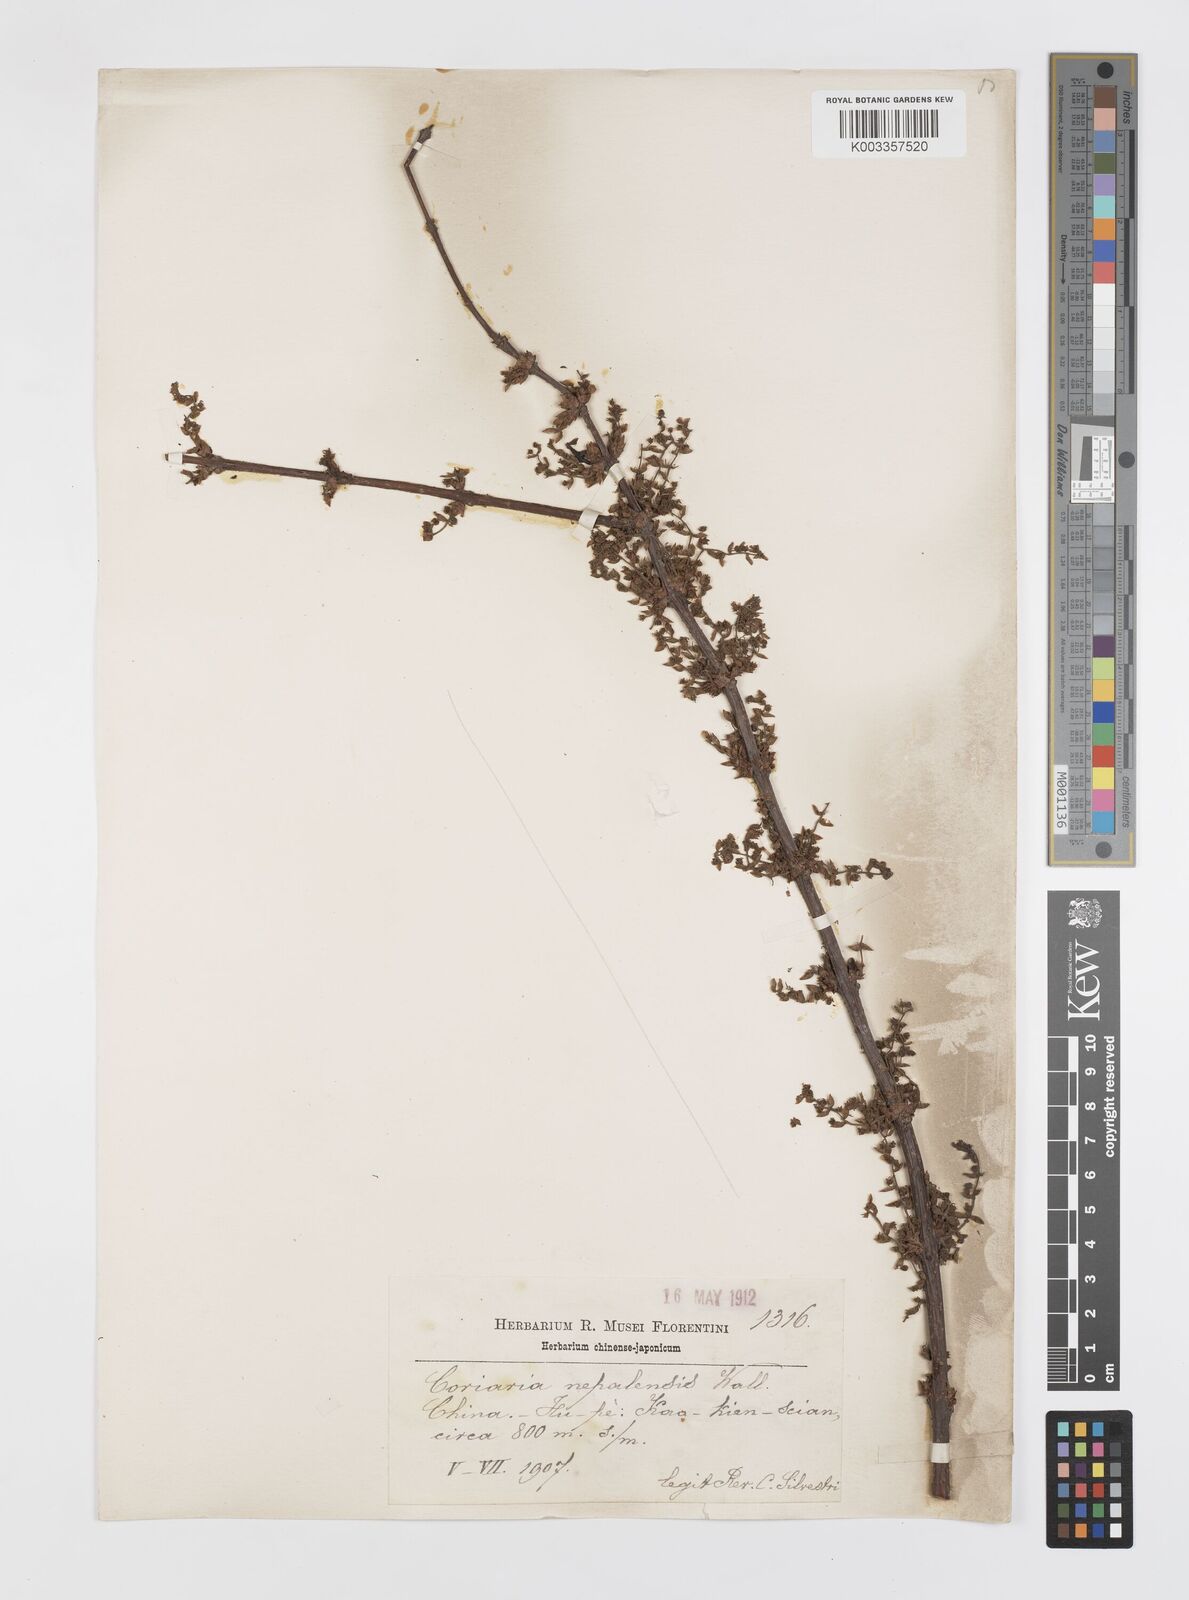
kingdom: Plantae
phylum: Tracheophyta
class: Magnoliopsida
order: Cucurbitales
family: Coriariaceae
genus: Coriaria
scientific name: Coriaria napalensis
